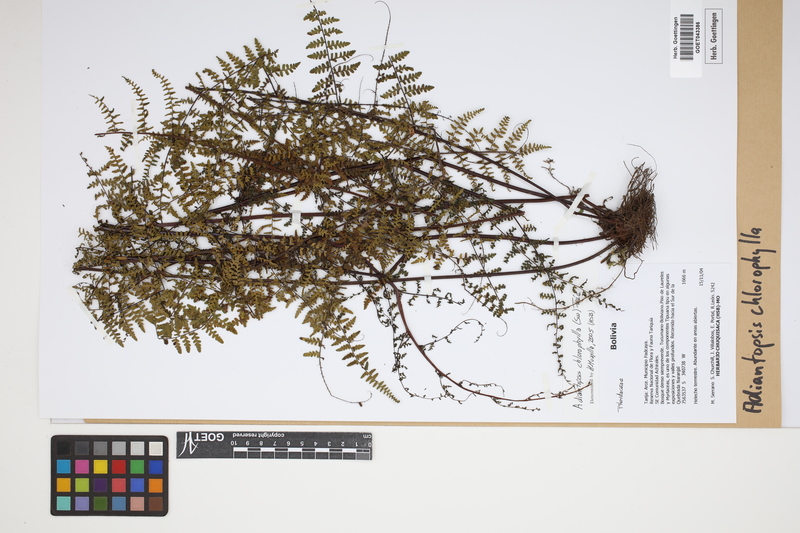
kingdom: Plantae
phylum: Tracheophyta
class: Polypodiopsida
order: Polypodiales
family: Pteridaceae
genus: Adiantopsis
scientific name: Adiantopsis chlorophylla
